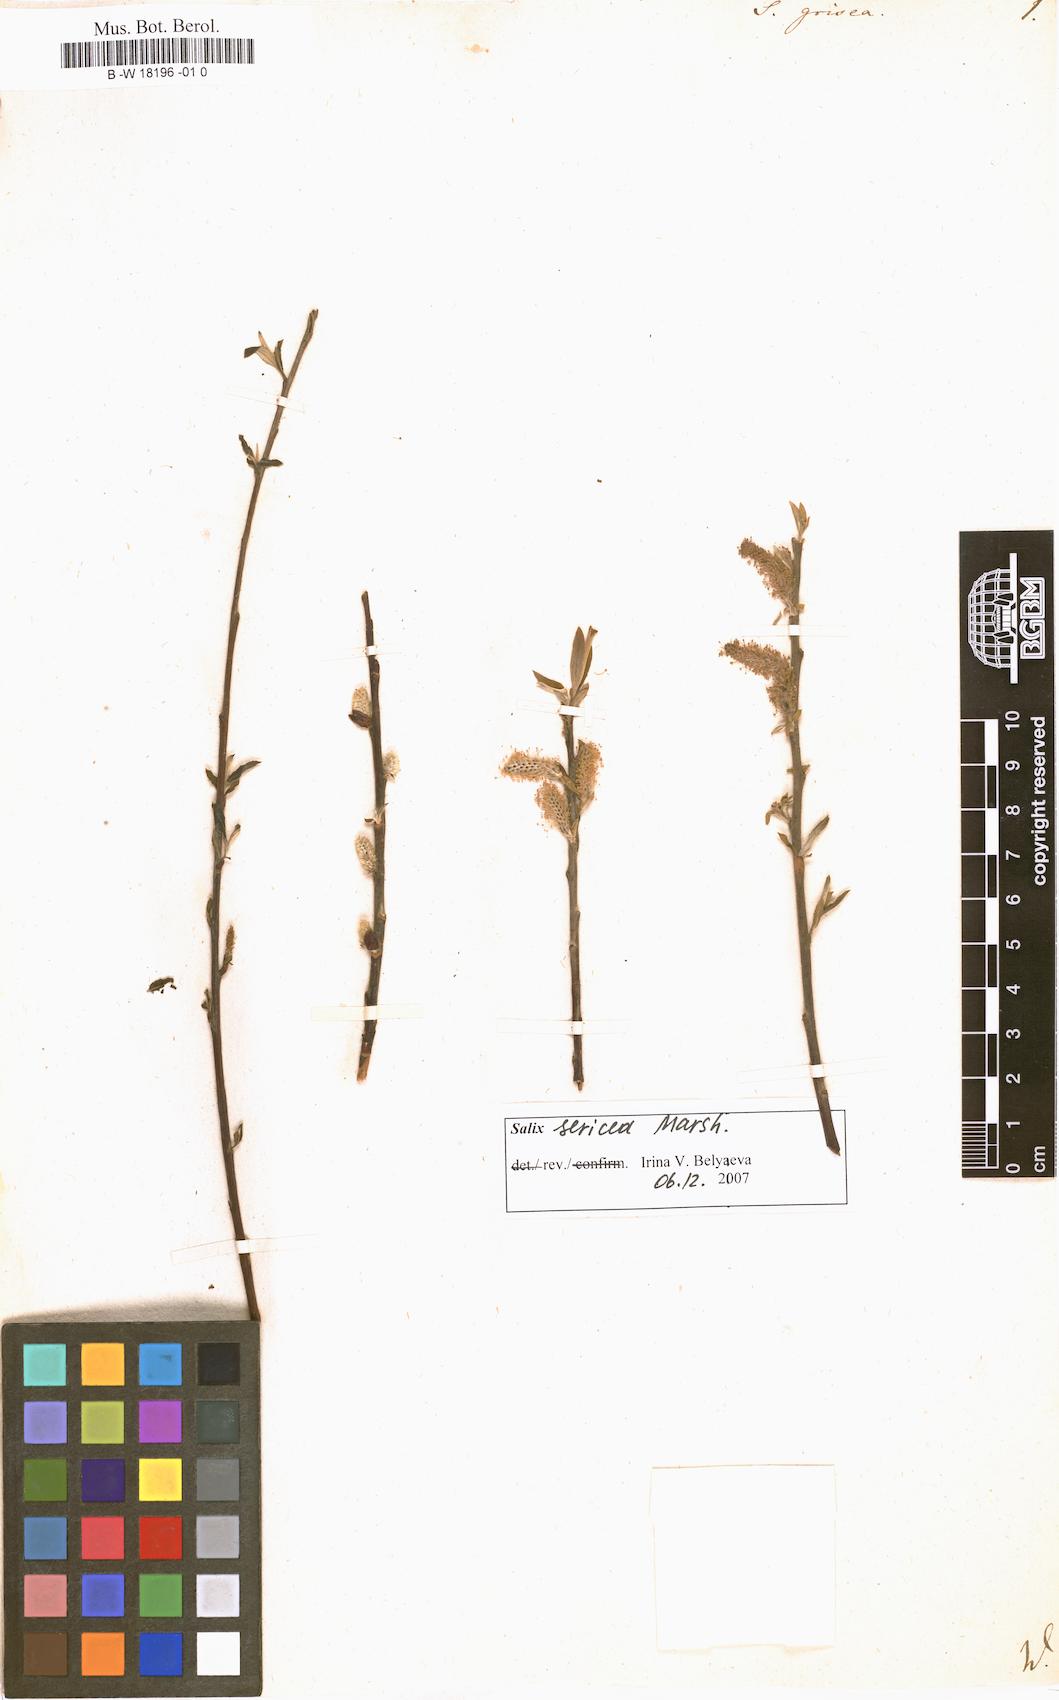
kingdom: Plantae
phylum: Tracheophyta
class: Magnoliopsida
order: Malpighiales
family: Salicaceae
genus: Salix
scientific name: Salix
